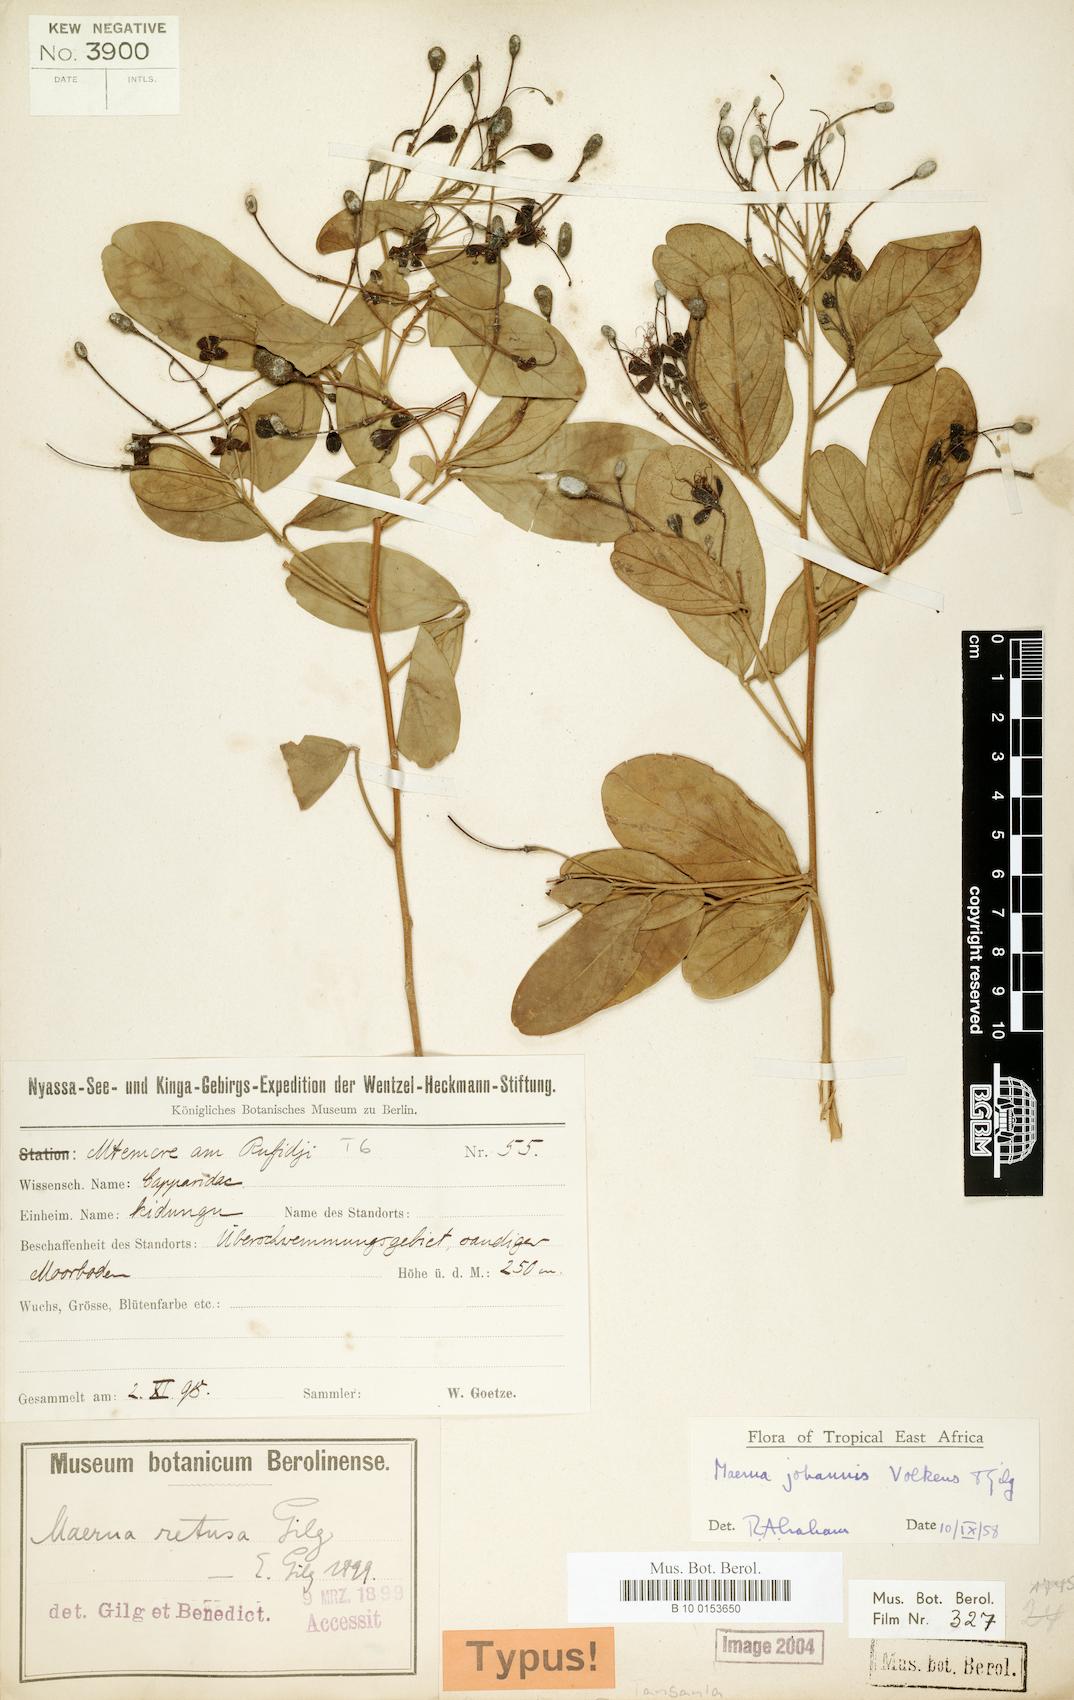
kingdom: Plantae
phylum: Tracheophyta
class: Magnoliopsida
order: Brassicales
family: Capparaceae
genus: Maerua
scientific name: Maerua triphylla
